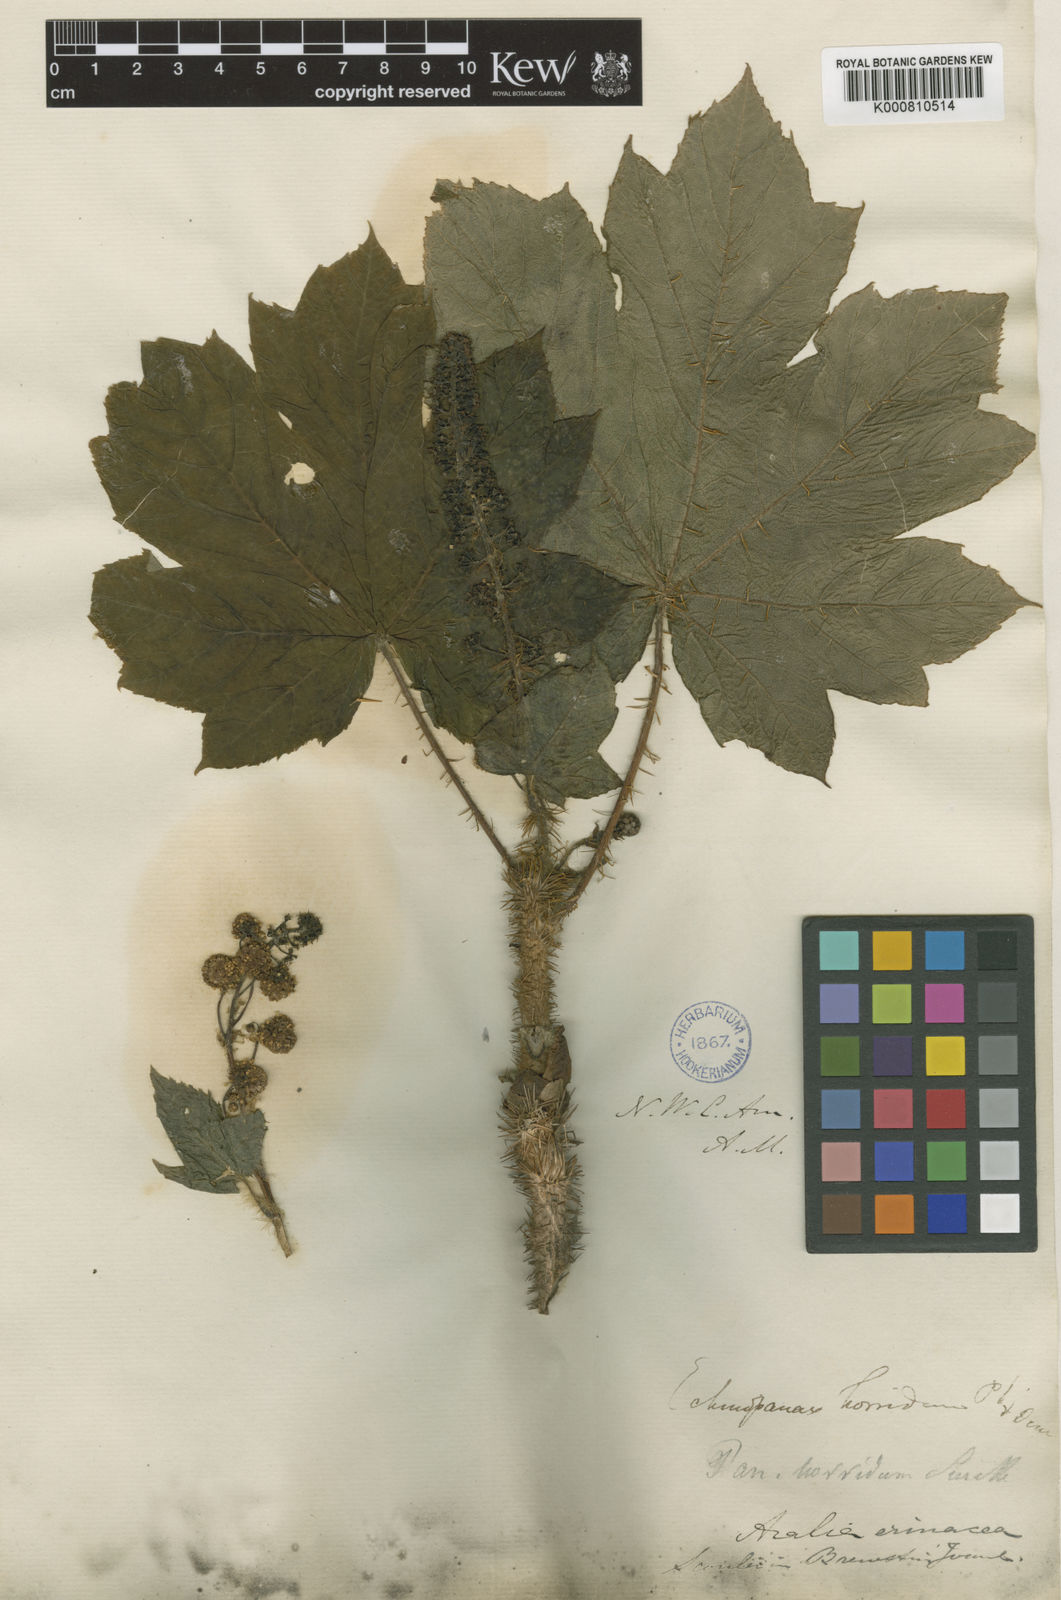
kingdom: Plantae
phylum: Tracheophyta
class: Magnoliopsida
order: Apiales
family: Araliaceae
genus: Oplopanax
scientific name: Oplopanax horridus
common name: Devil's walking-stick
